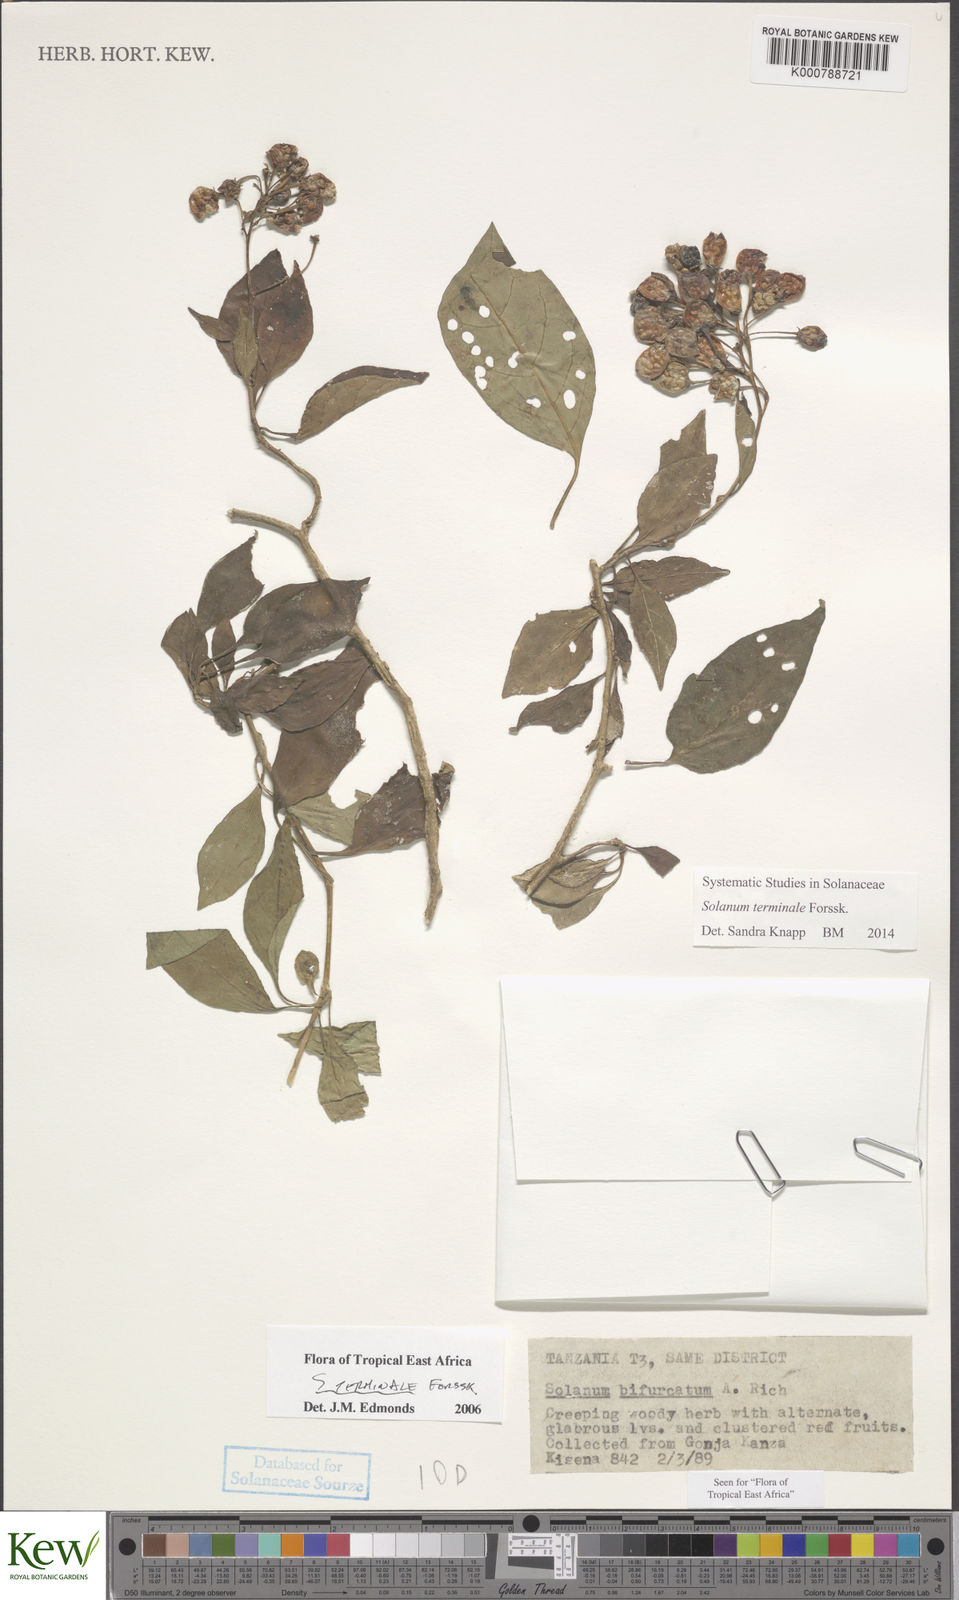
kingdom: Plantae
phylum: Tracheophyta
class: Magnoliopsida
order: Solanales
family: Solanaceae
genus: Solanum
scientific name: Solanum terminale
